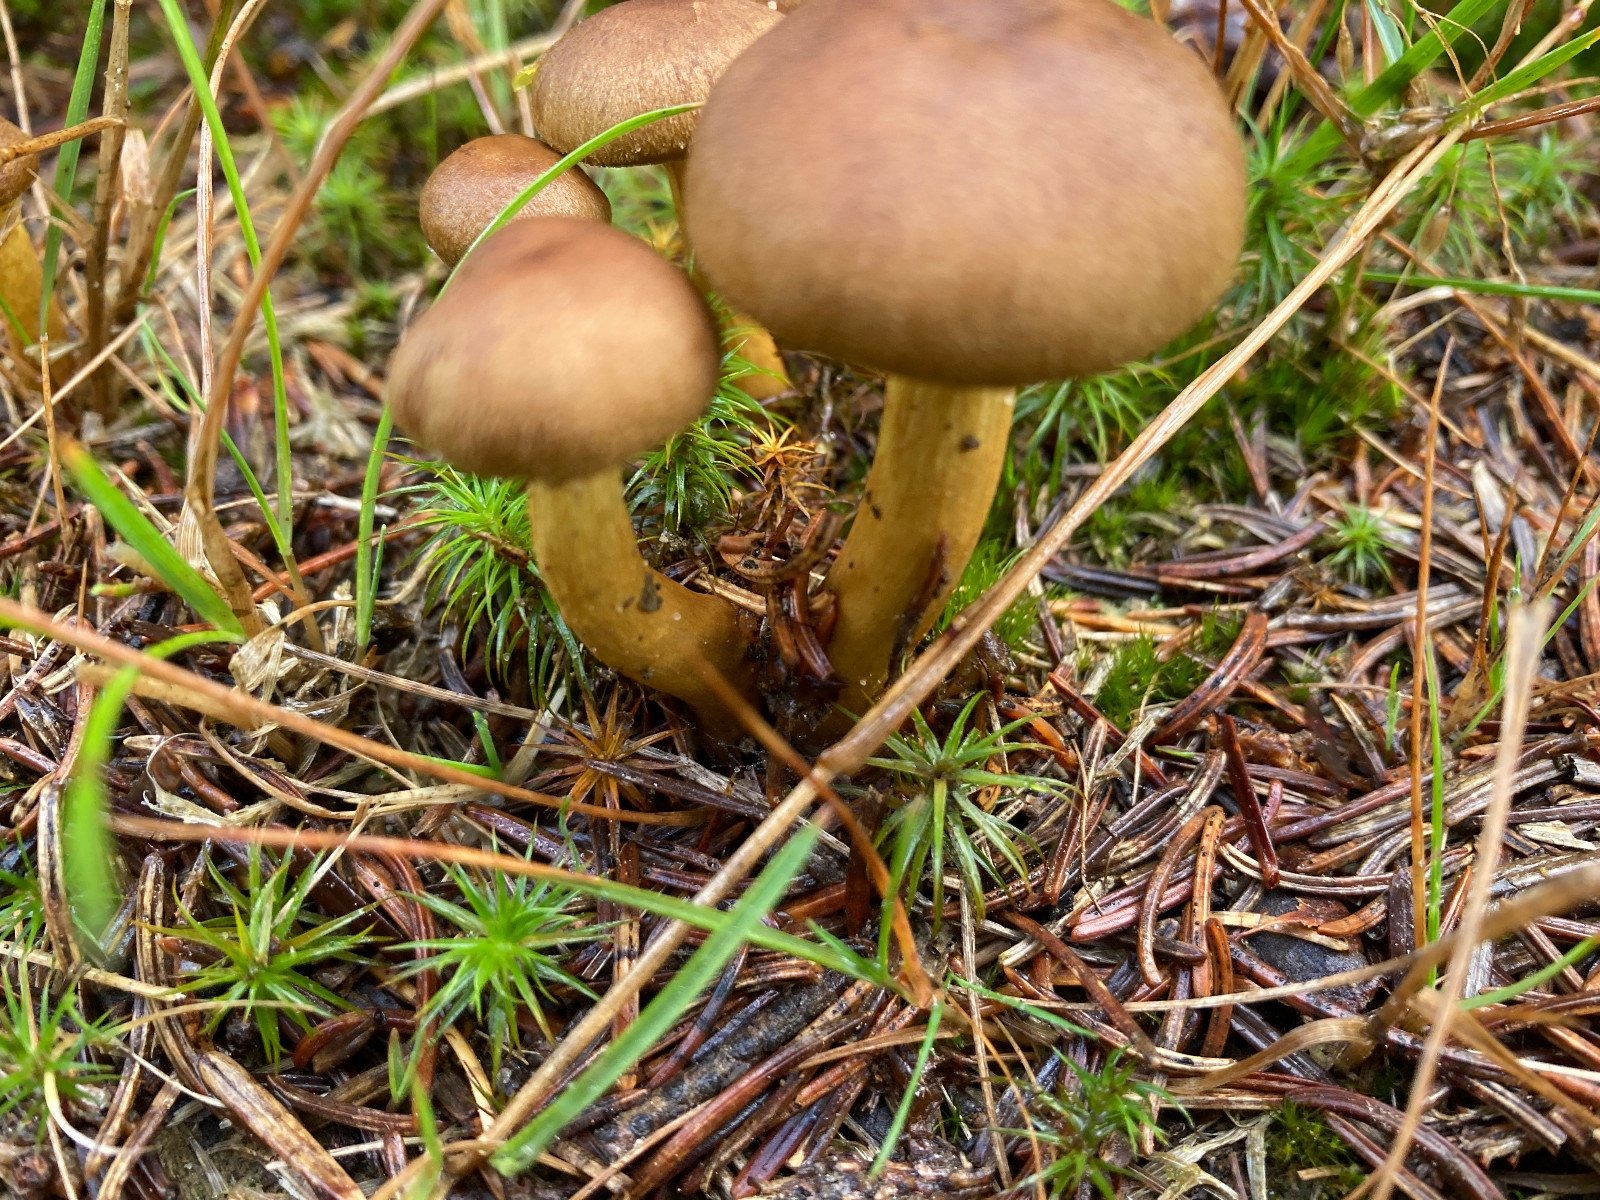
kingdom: Fungi
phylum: Basidiomycota
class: Agaricomycetes
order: Agaricales
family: Cortinariaceae
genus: Cortinarius
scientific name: Cortinarius
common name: gulbladet slørhat
